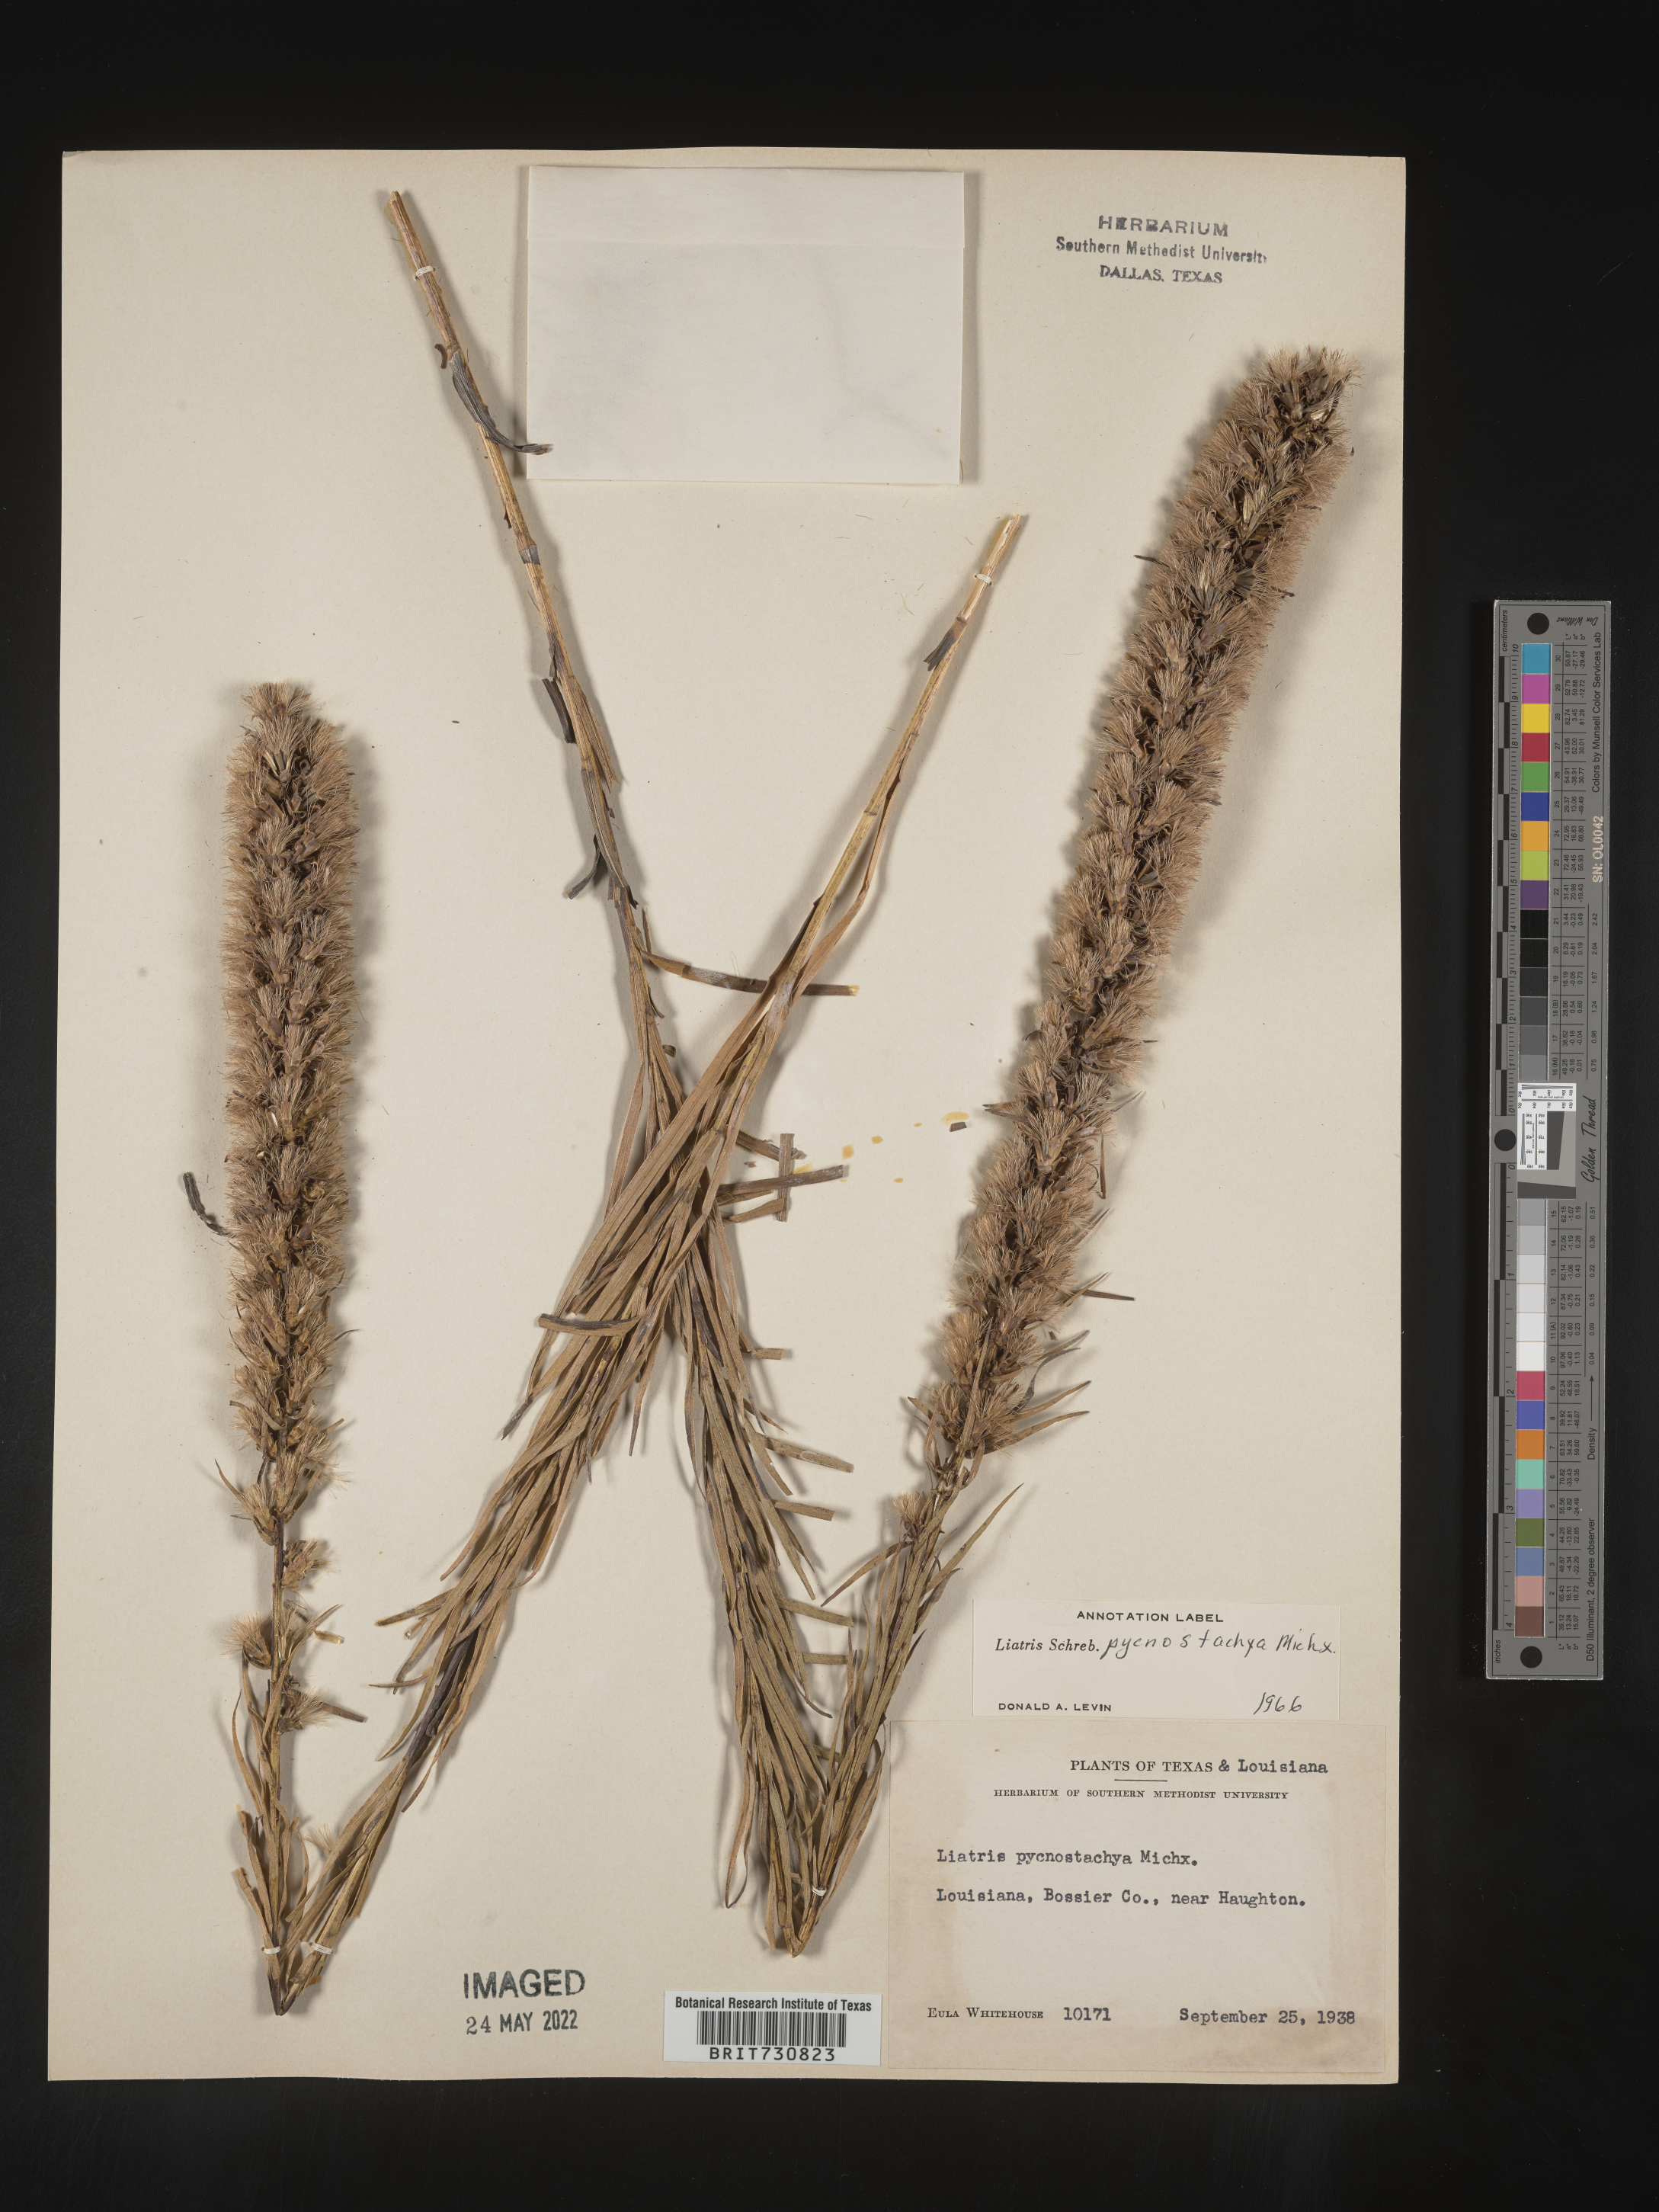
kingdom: Plantae
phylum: Tracheophyta
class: Magnoliopsida
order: Asterales
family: Asteraceae
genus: Liatris
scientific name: Liatris pycnostachya
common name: Cattail gayfeather
